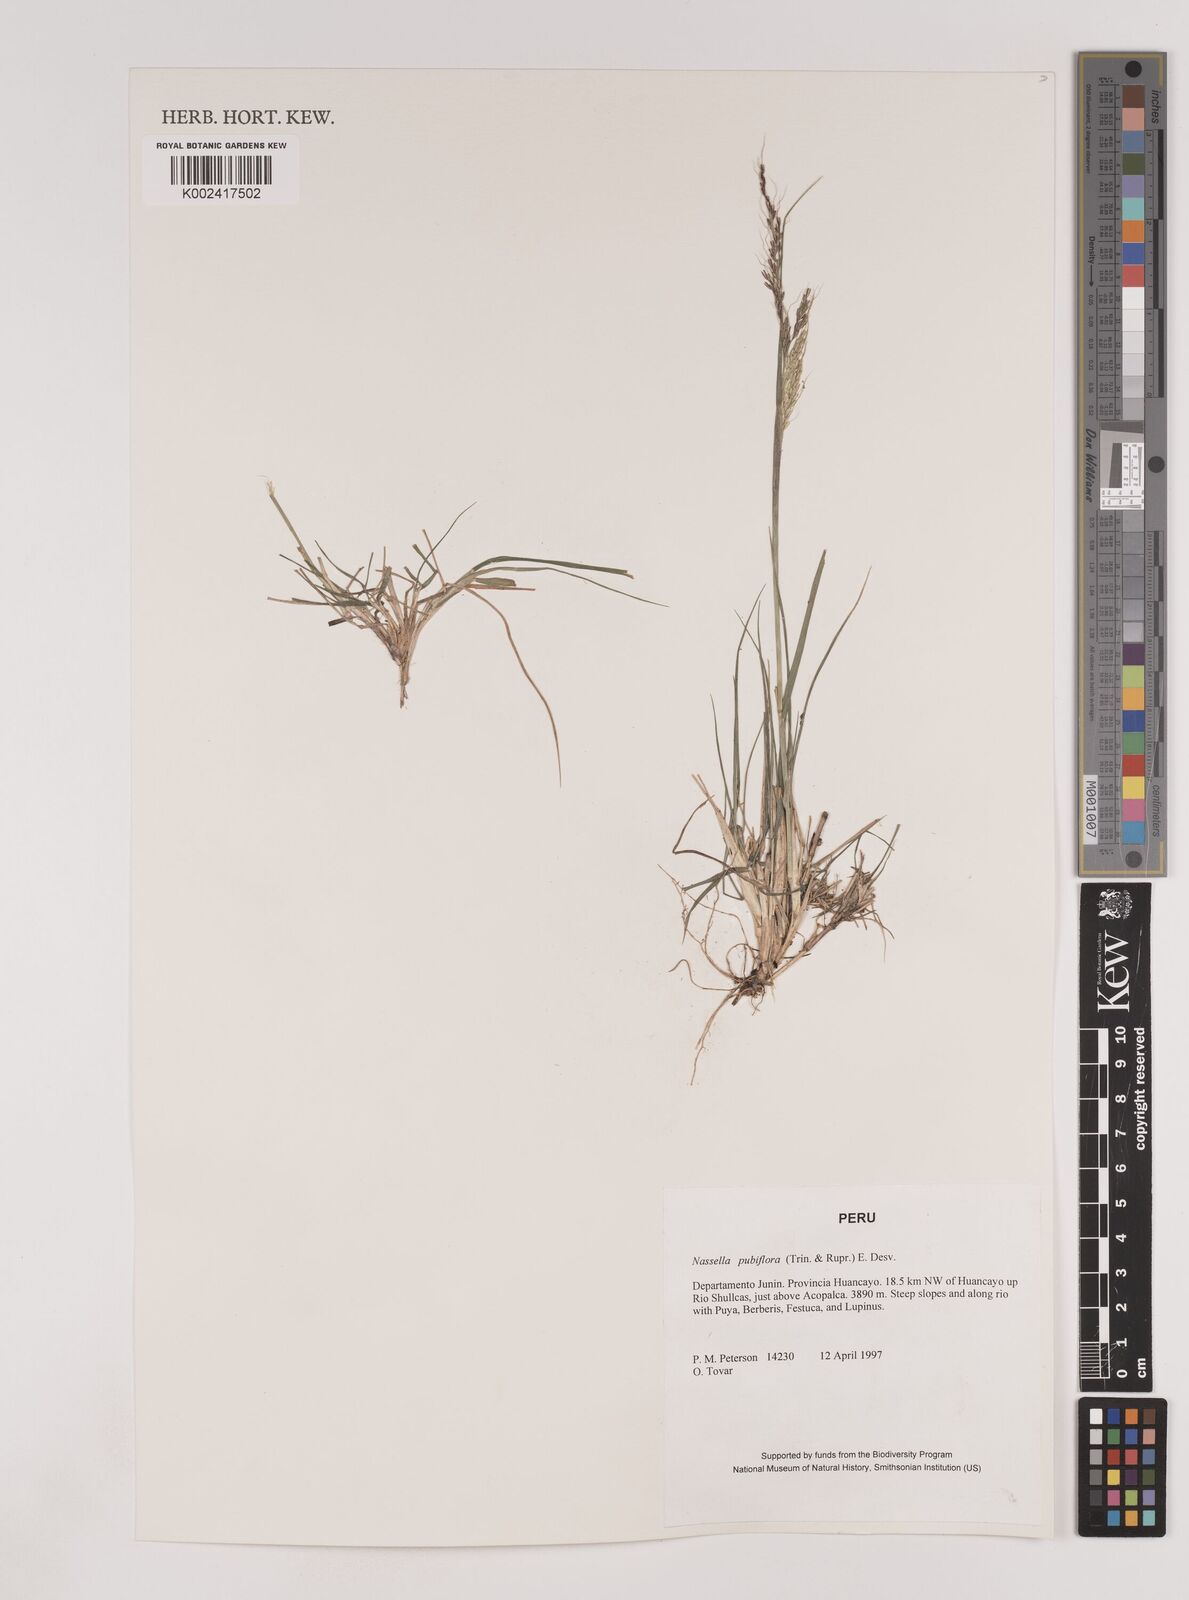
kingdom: Plantae
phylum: Tracheophyta
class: Liliopsida
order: Poales
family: Poaceae
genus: Nassella
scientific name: Nassella pubiflora
